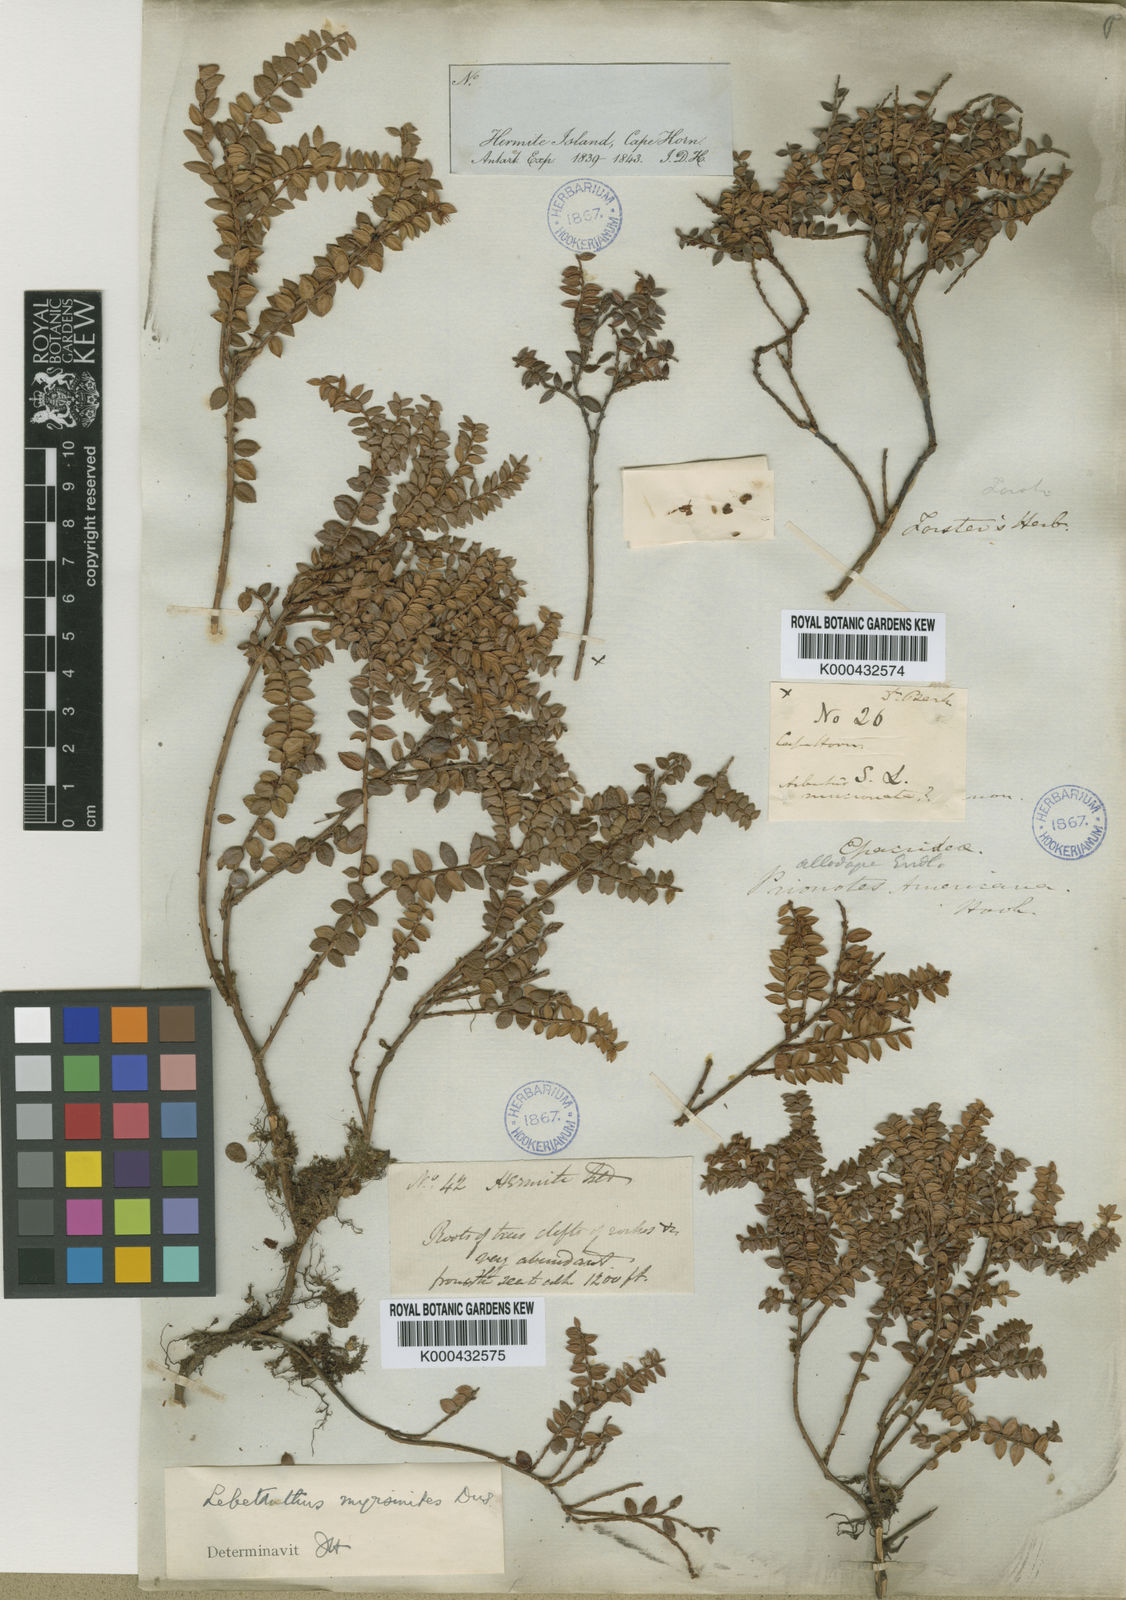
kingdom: Plantae
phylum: Tracheophyta
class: Magnoliopsida
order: Ericales
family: Ericaceae
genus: Lebetanthus
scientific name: Lebetanthus
